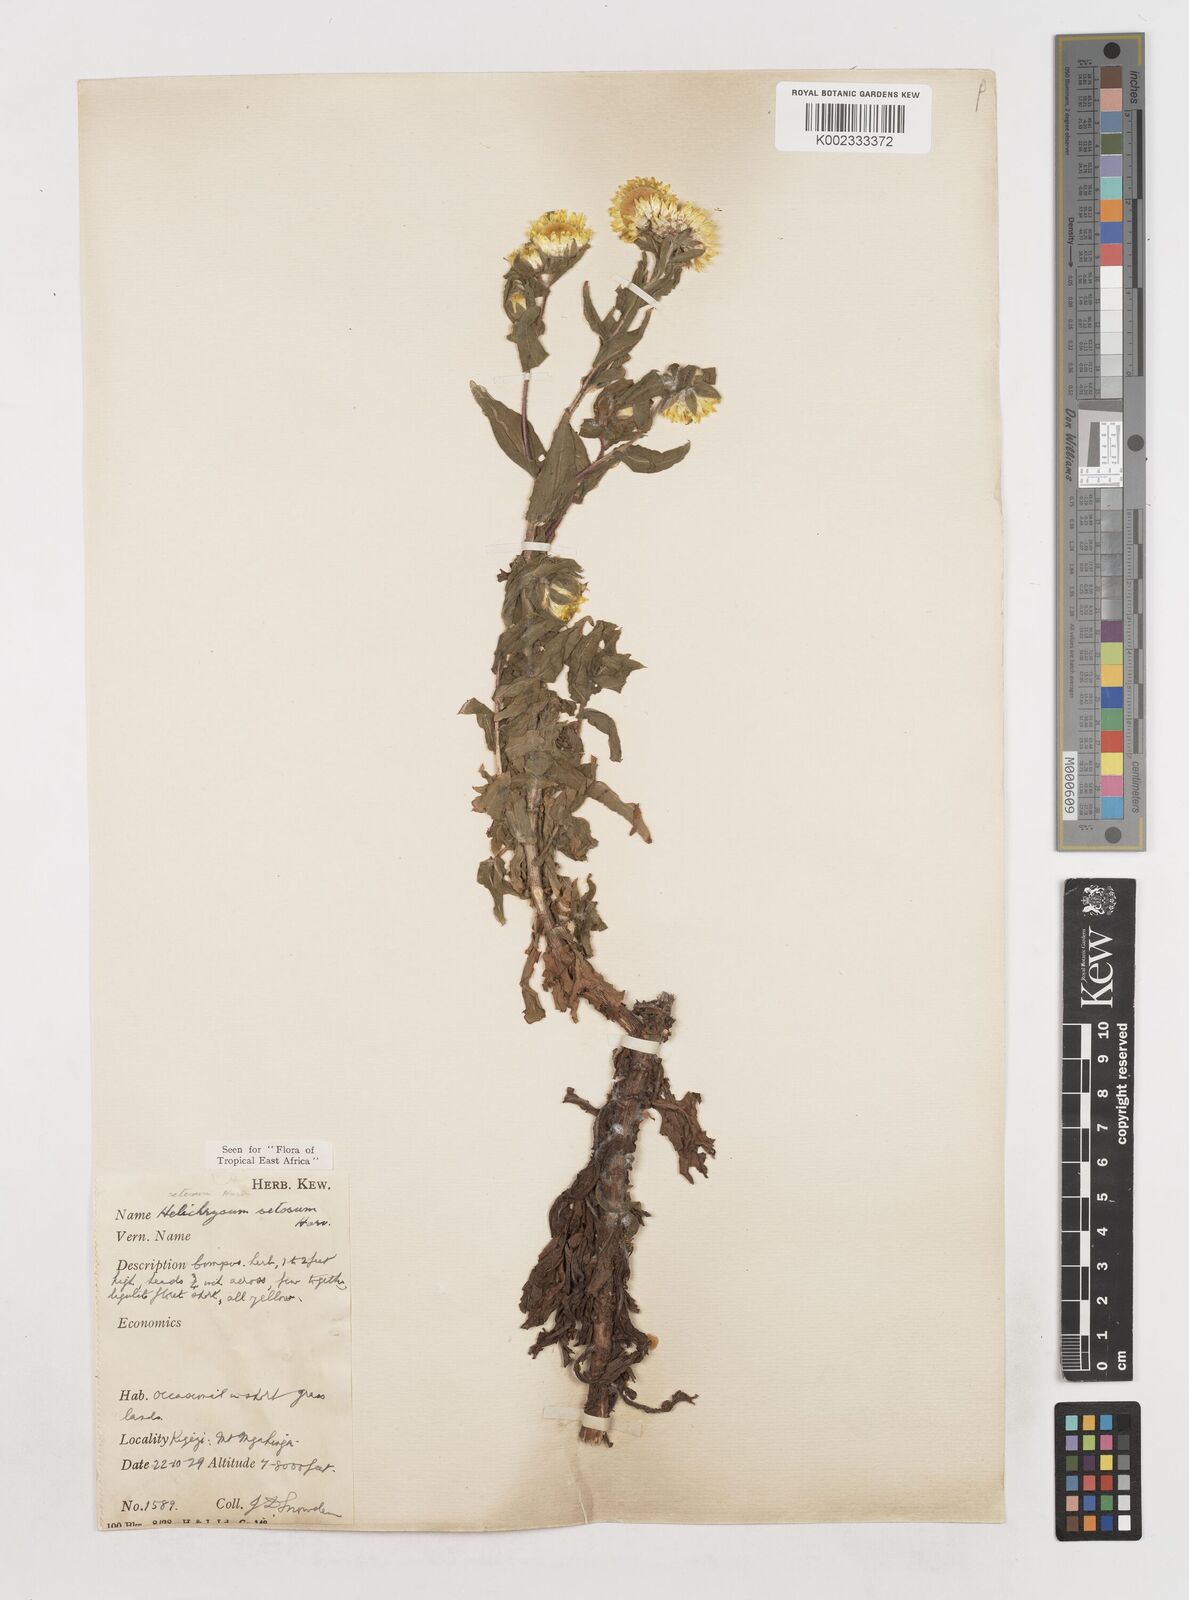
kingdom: Plantae
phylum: Tracheophyta
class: Magnoliopsida
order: Asterales
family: Asteraceae
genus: Helichrysum
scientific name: Helichrysum setosum
